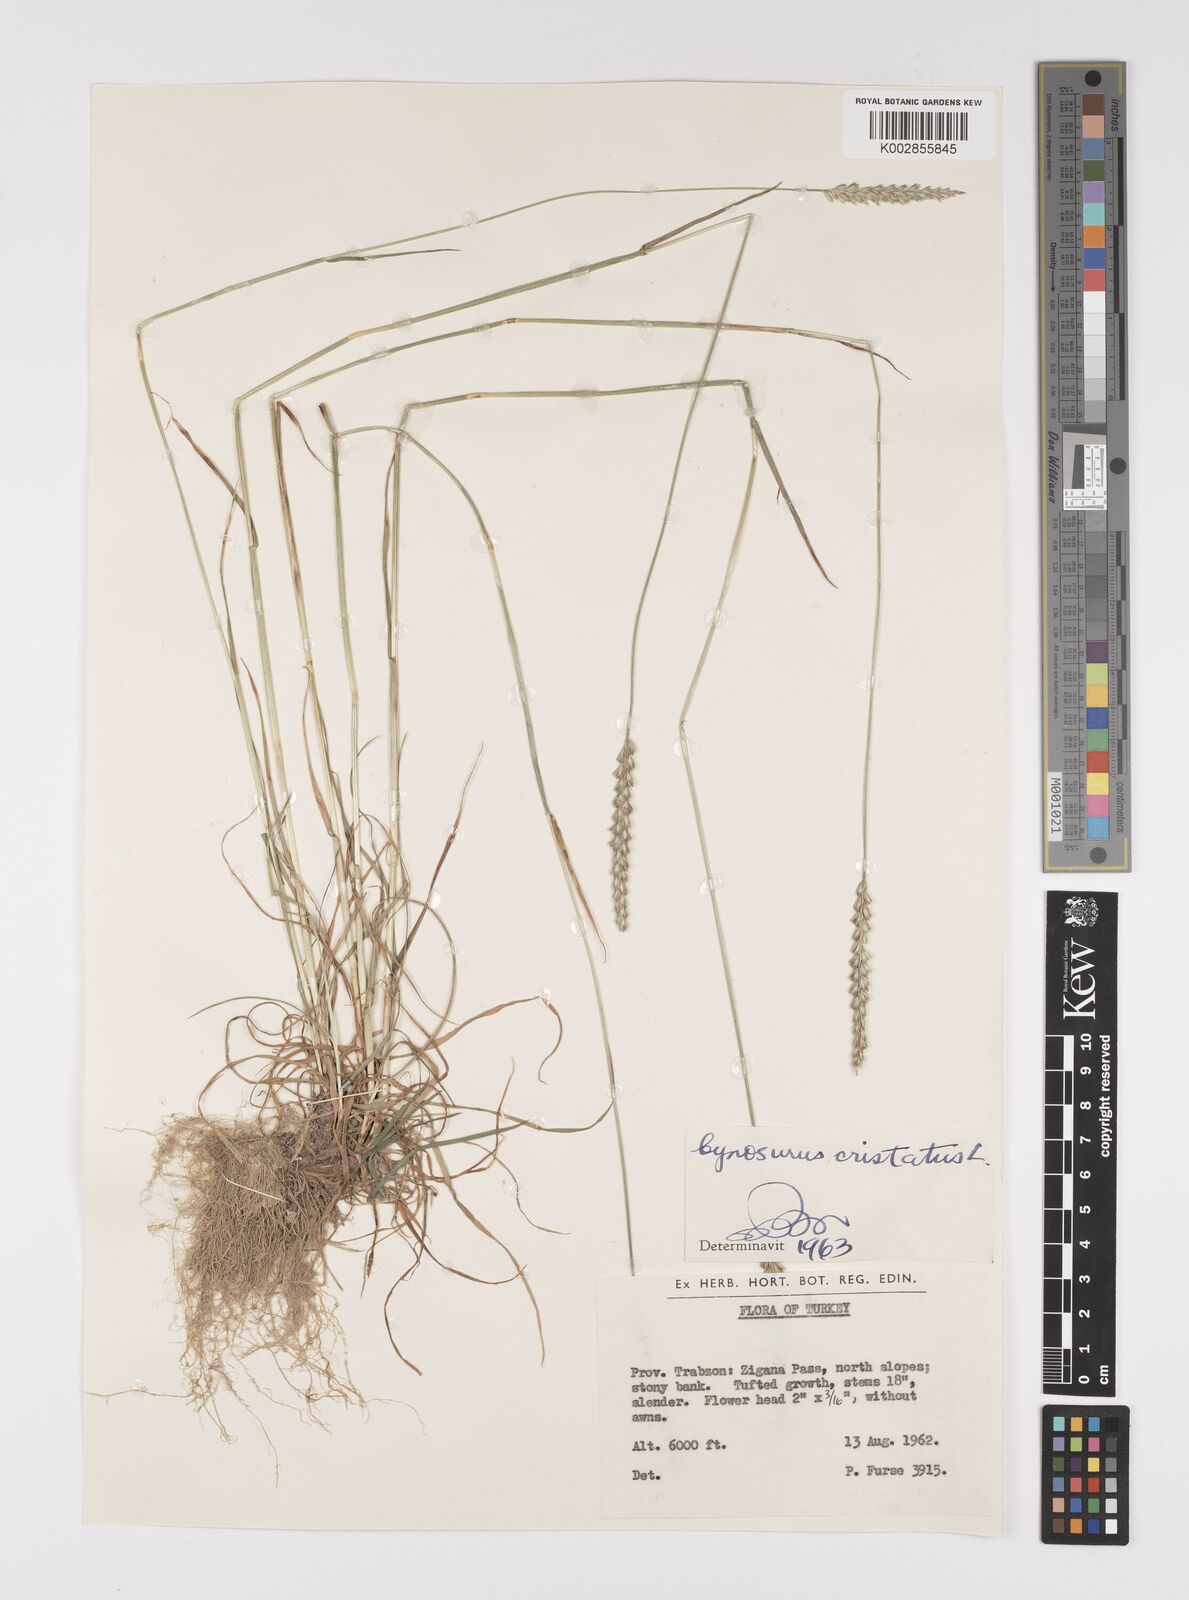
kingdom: Plantae
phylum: Tracheophyta
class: Liliopsida
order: Poales
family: Poaceae
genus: Cynosurus
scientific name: Cynosurus cristatus
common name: Crested dog's-tail
